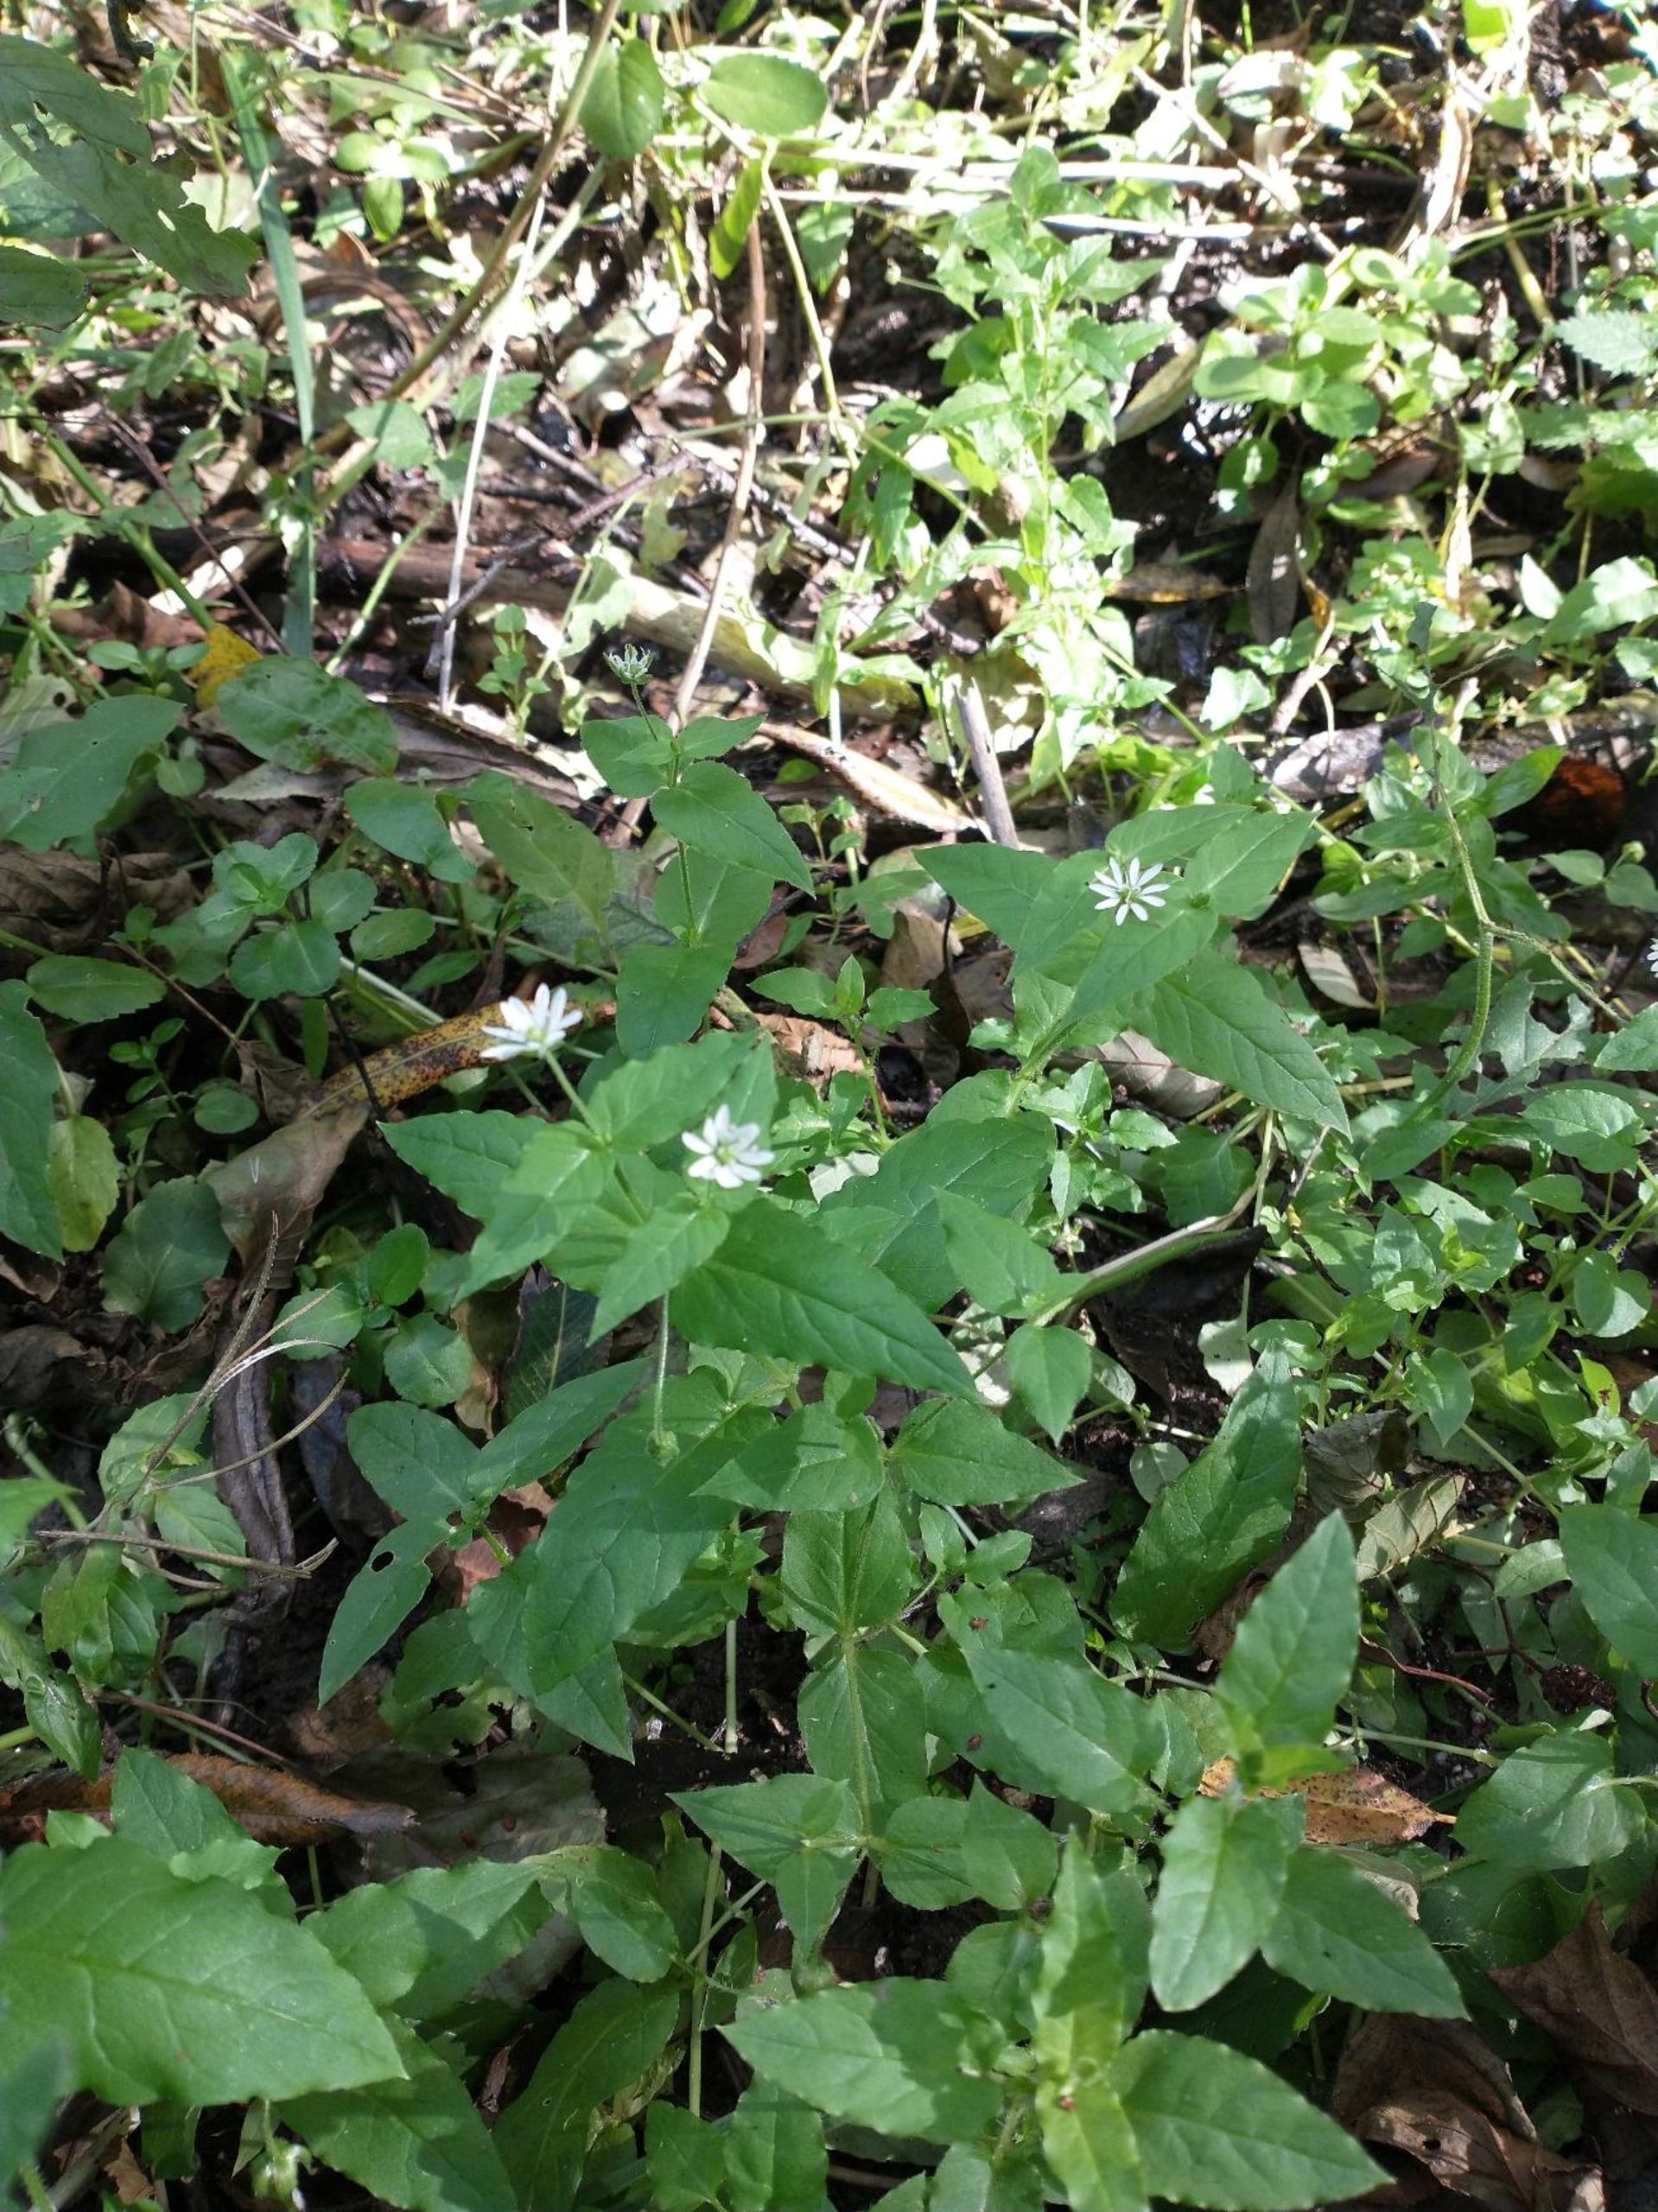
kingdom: Plantae
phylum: Tracheophyta
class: Magnoliopsida
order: Caryophyllales
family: Caryophyllaceae
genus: Stellaria
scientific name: Stellaria nemorum
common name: Nordlig lund-fladstjerne
